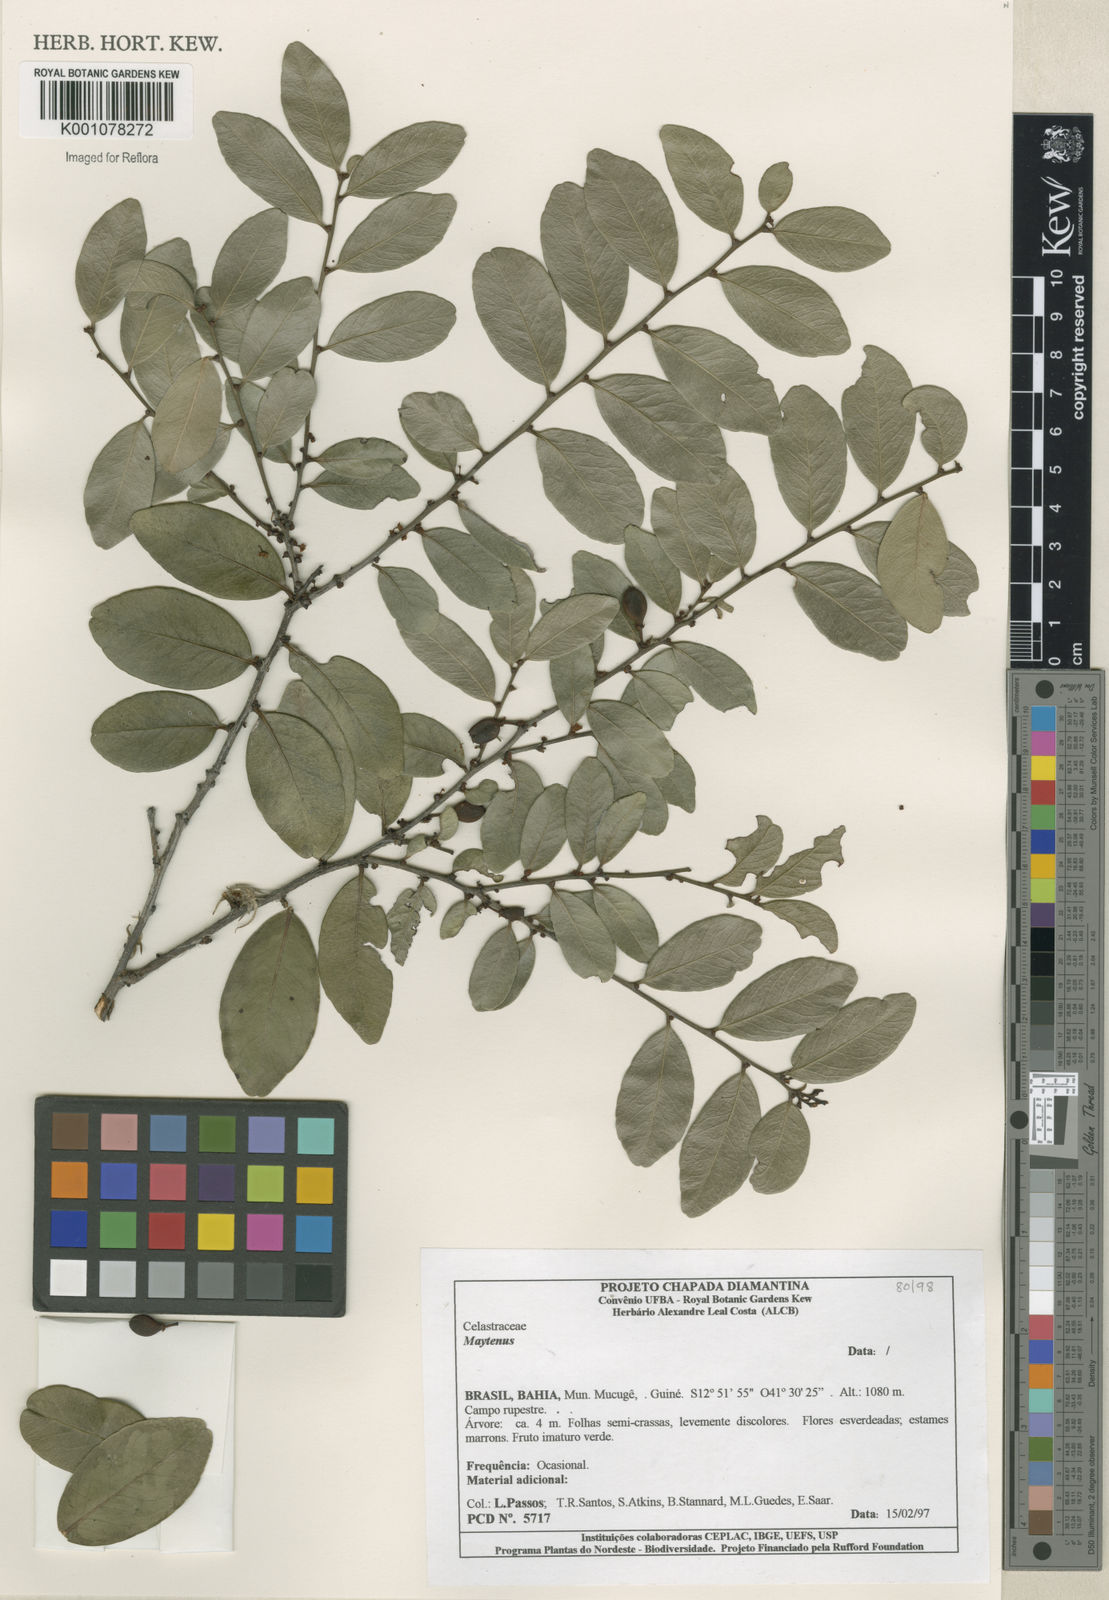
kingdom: Plantae
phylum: Tracheophyta
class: Magnoliopsida
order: Celastrales
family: Celastraceae
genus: Maytenus
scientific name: Maytenus
